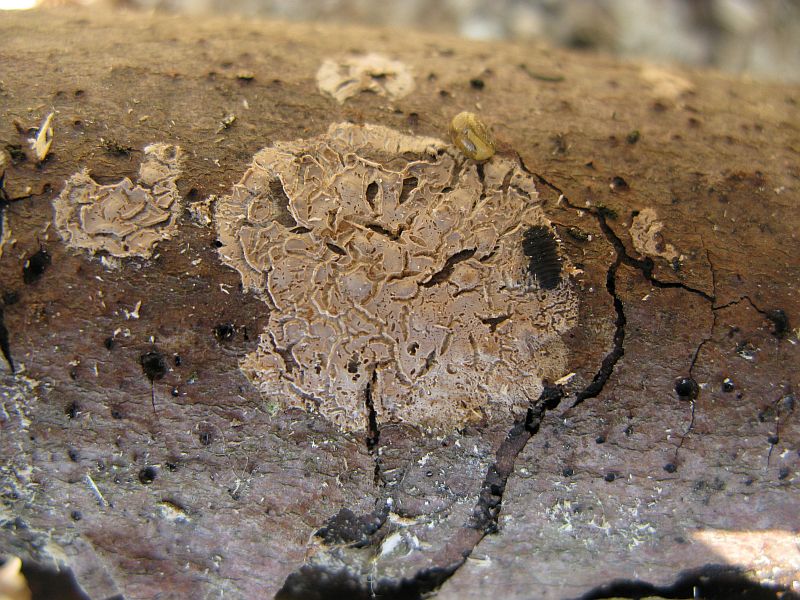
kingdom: Fungi
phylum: Basidiomycota
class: Agaricomycetes
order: Agaricales
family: Physalacriaceae
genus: Cylindrobasidium
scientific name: Cylindrobasidium evolvens
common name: sprækkehinde
